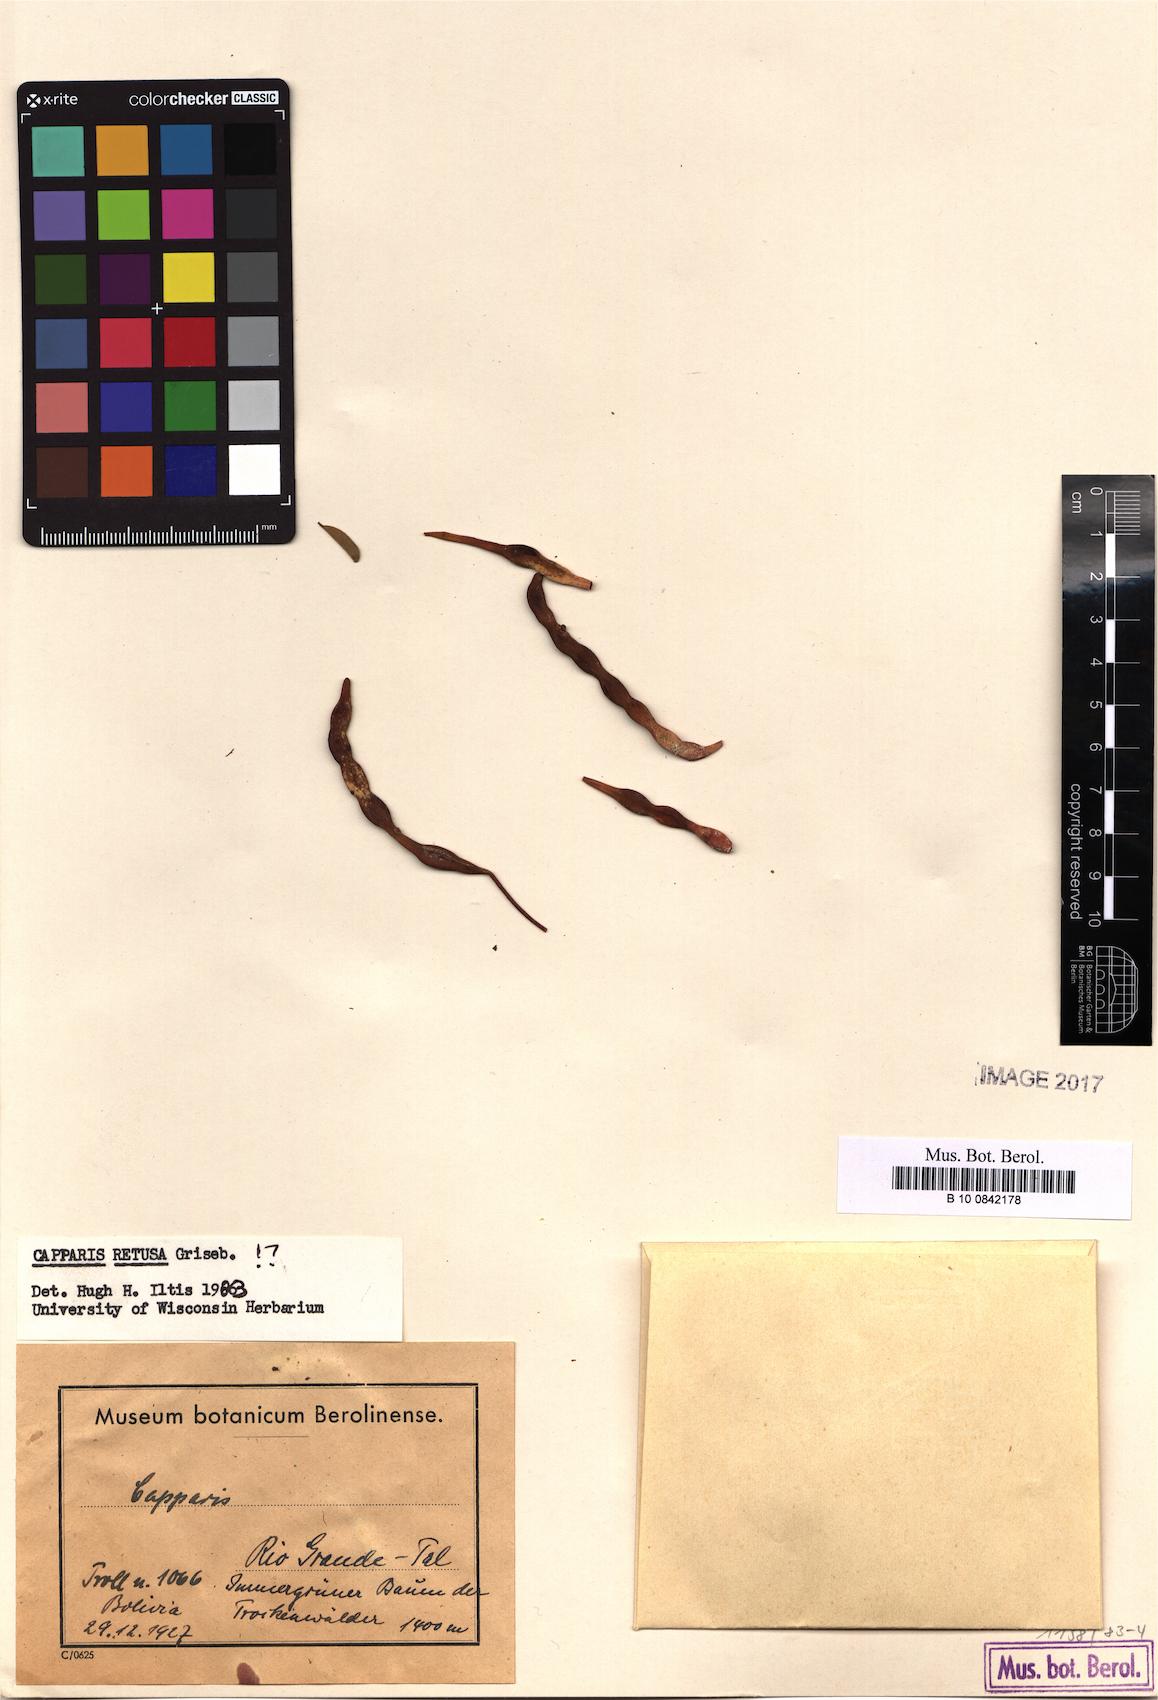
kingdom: Plantae
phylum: Tracheophyta
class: Magnoliopsida
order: Brassicales
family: Capparaceae
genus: Cynophalla
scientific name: Cynophalla retusa
